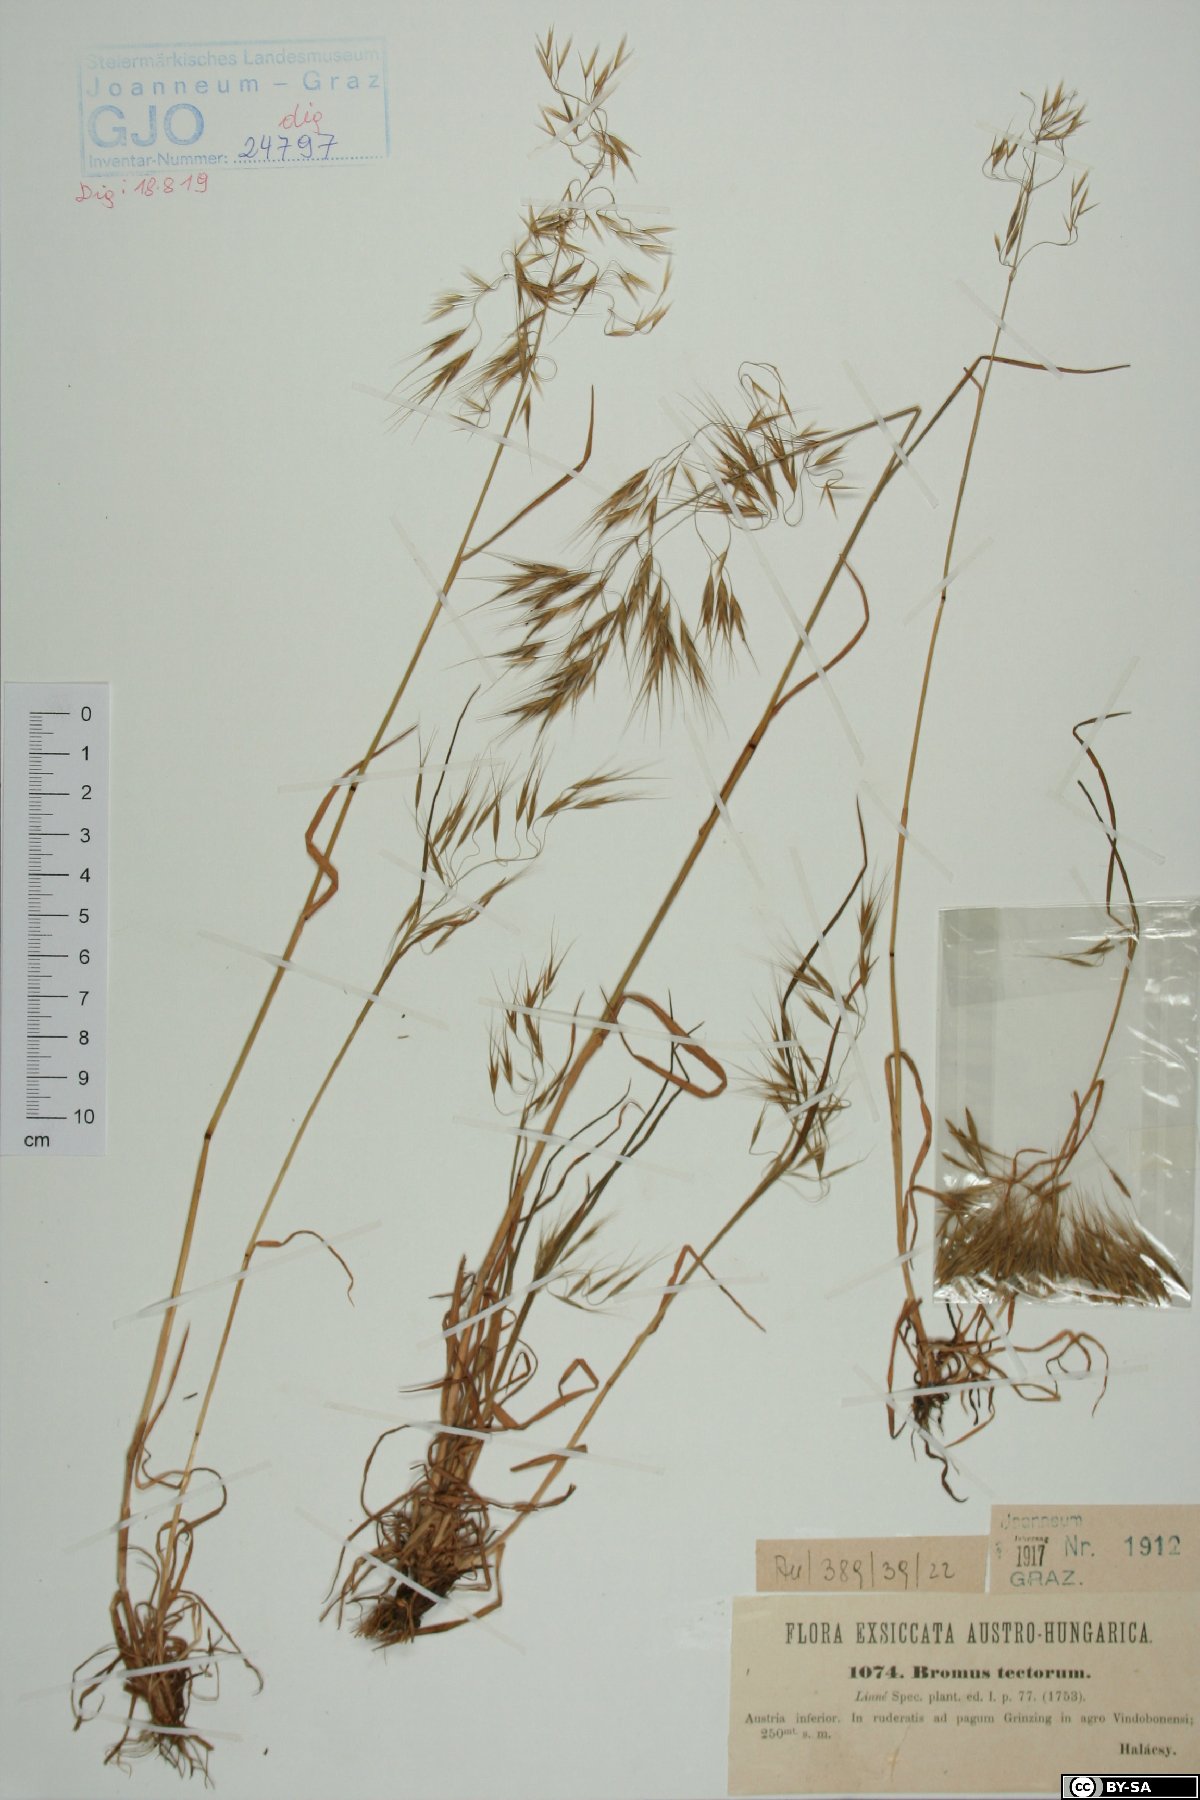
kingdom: Plantae
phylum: Tracheophyta
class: Liliopsida
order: Poales
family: Poaceae
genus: Bromus
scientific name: Bromus tectorum
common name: Cheatgrass
